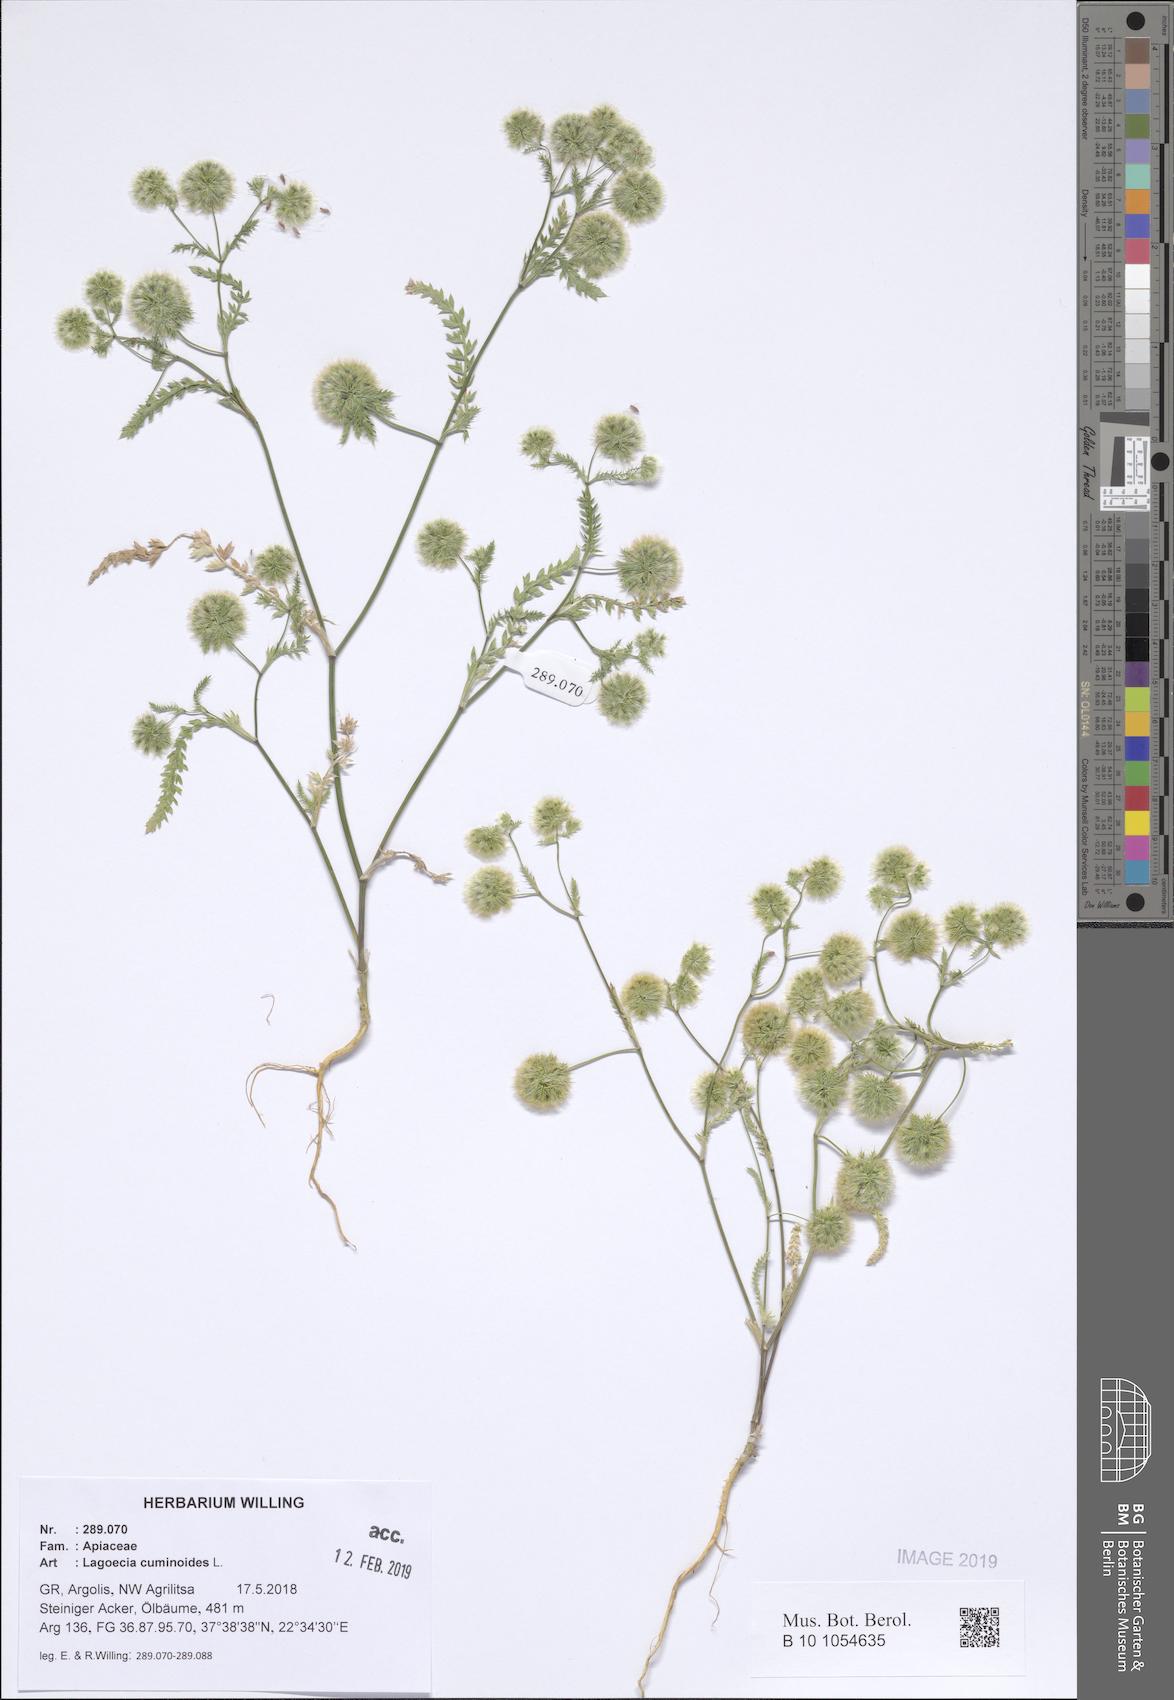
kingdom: Plantae
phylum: Tracheophyta
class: Magnoliopsida
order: Apiales
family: Apiaceae
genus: Lagoecia
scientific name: Lagoecia cuminoides
